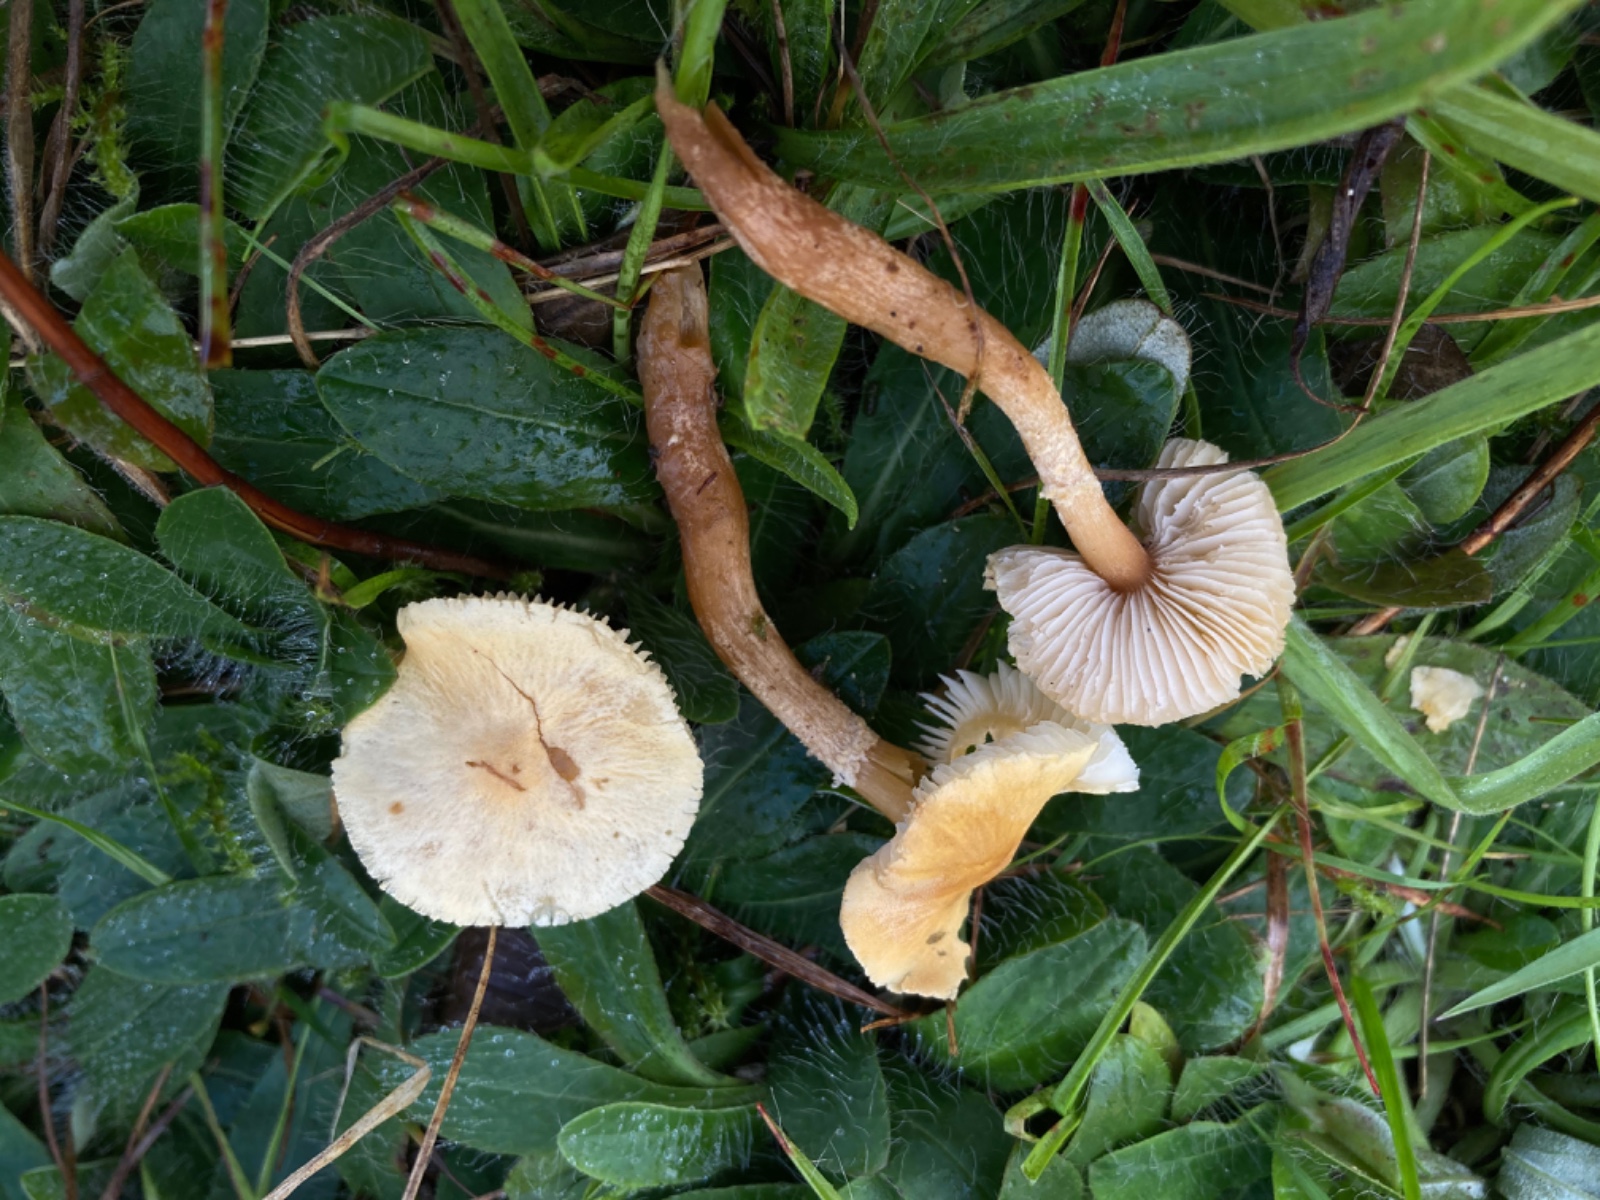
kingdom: Fungi
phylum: Basidiomycota
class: Agaricomycetes
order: Agaricales
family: Tricholomataceae
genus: Cystoderma
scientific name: Cystoderma amianthinum
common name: okkergul grynhat
